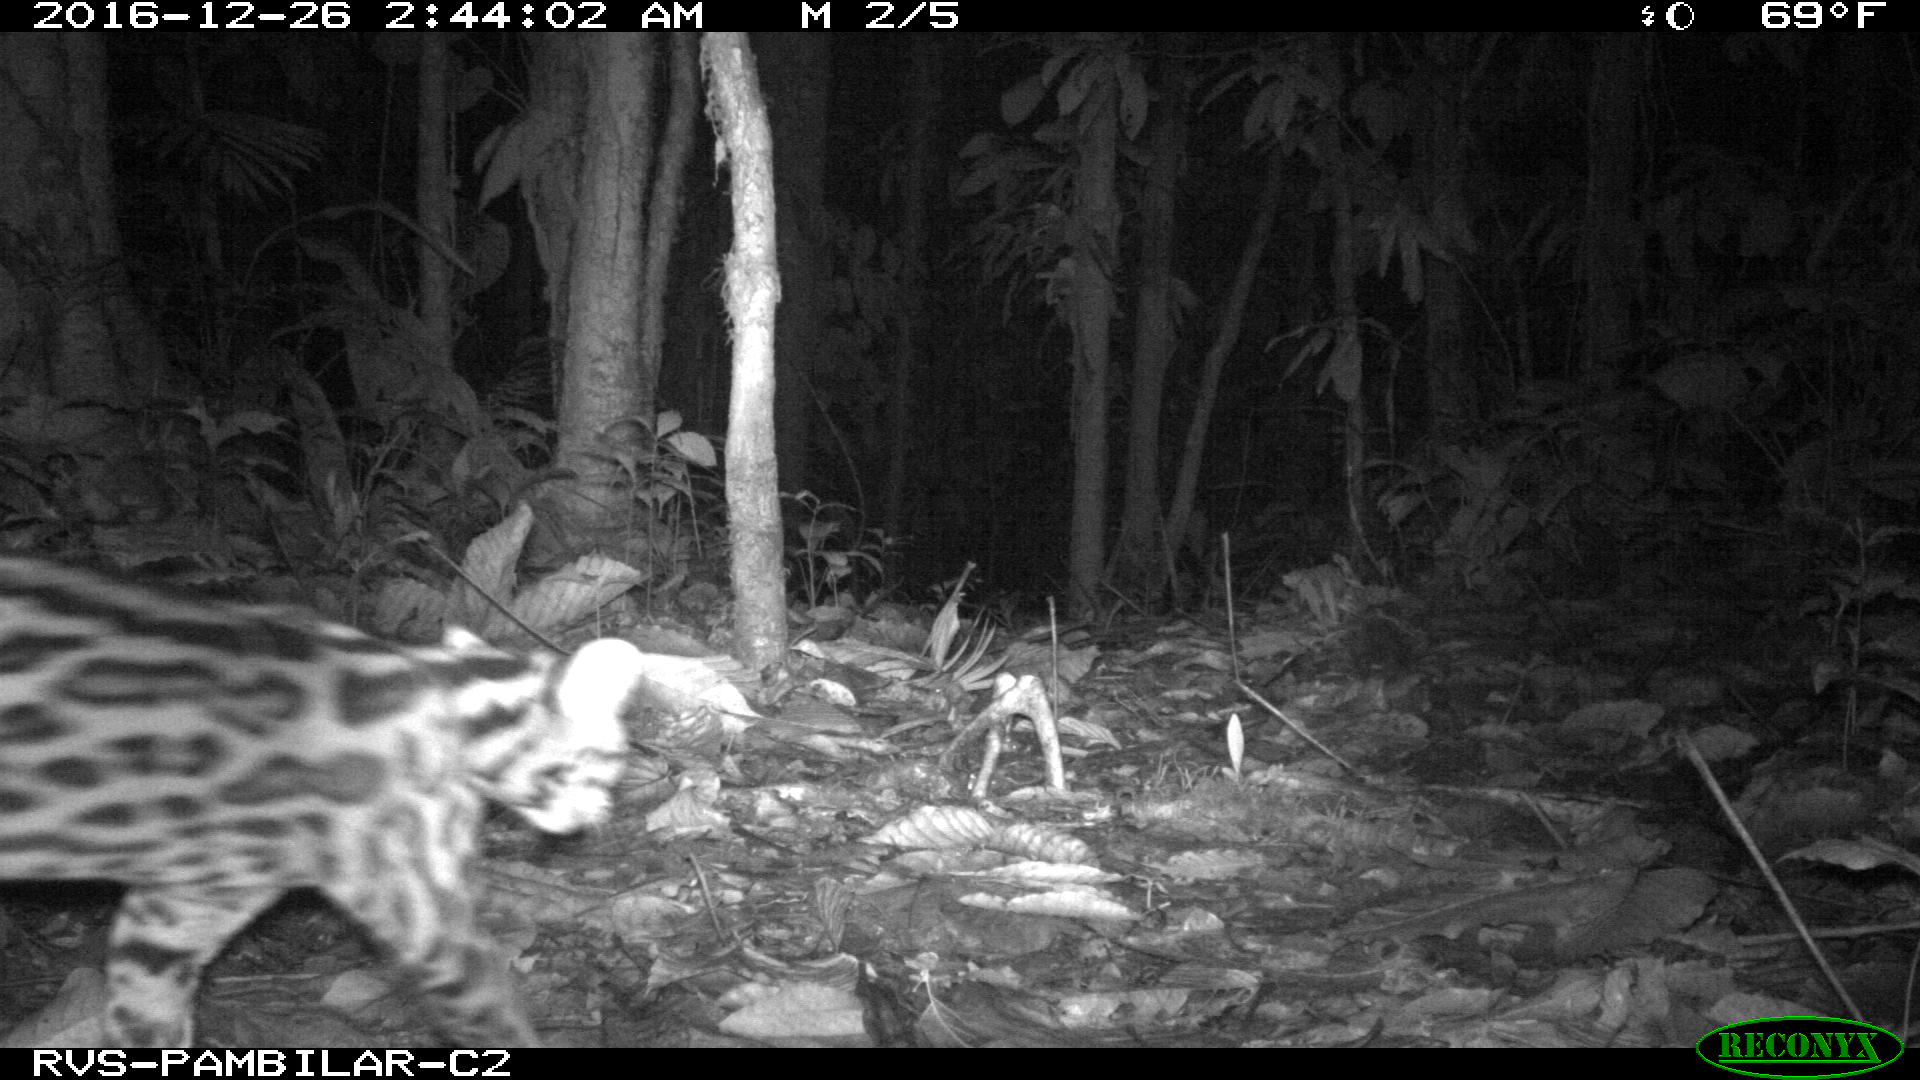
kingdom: Animalia
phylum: Chordata
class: Mammalia
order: Carnivora
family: Felidae
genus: Leopardus
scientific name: Leopardus pardalis
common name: Ocelot
